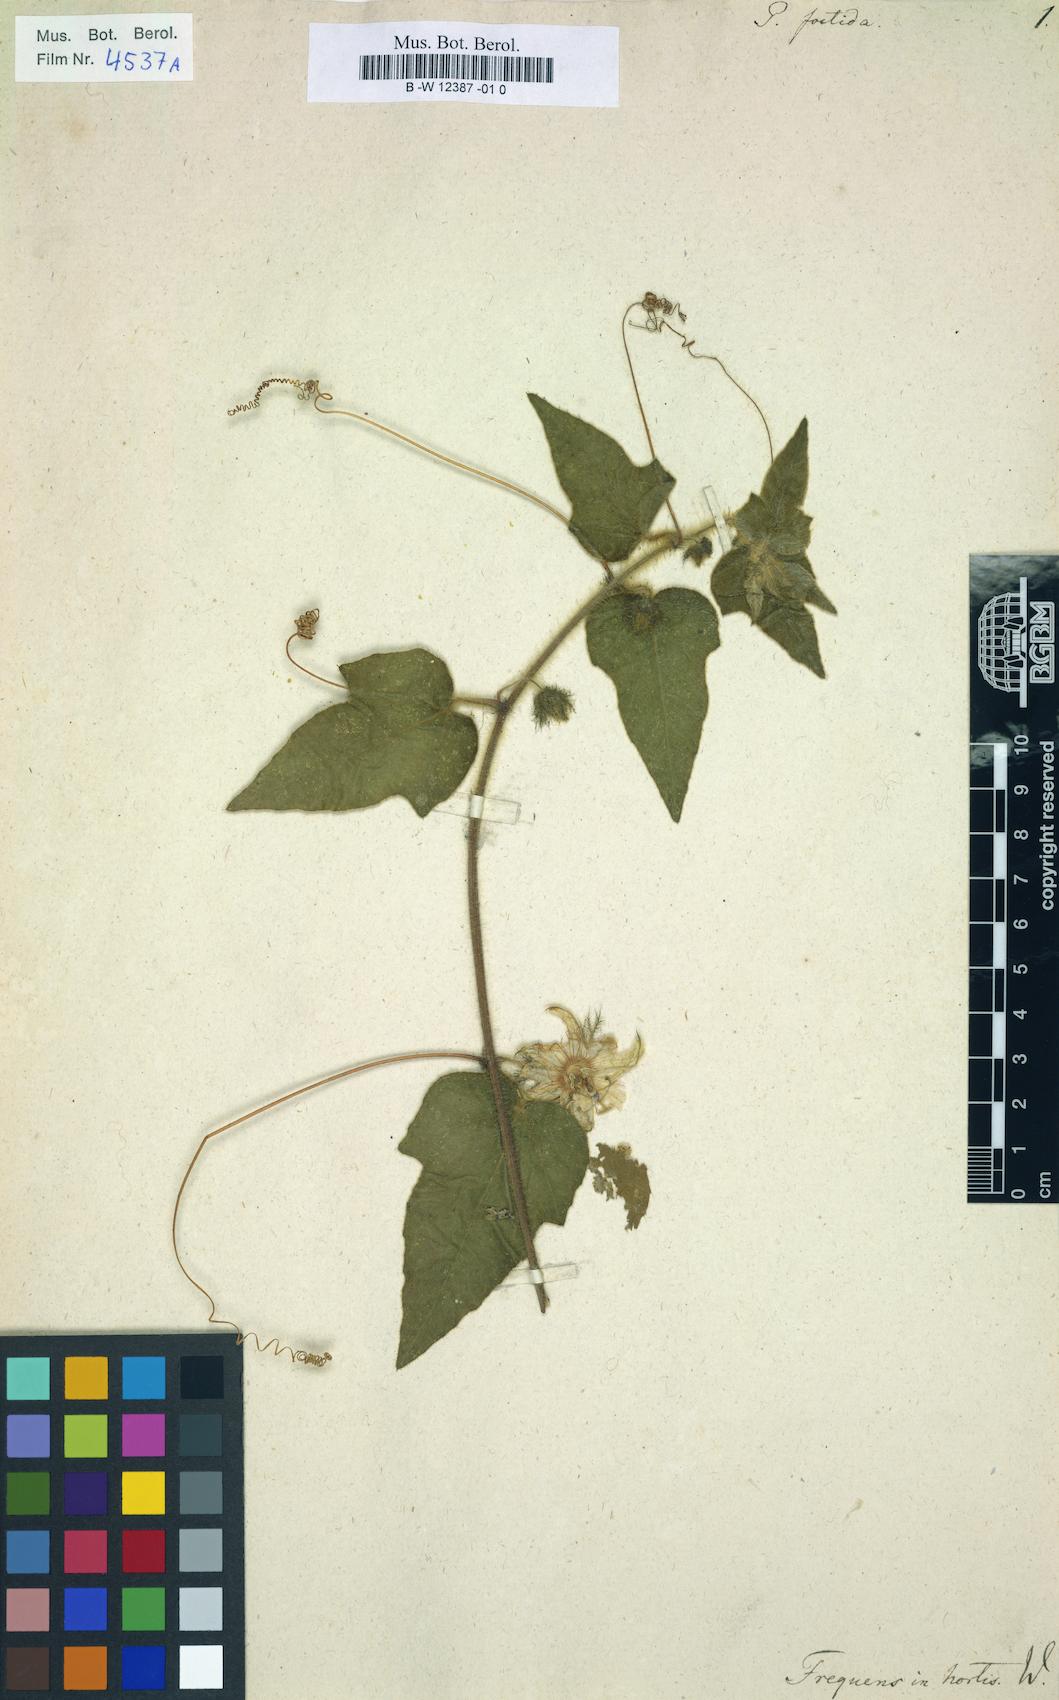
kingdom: Plantae
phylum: Tracheophyta
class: Magnoliopsida
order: Malpighiales
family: Passifloraceae
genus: Passiflora
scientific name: Passiflora foetida
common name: Fetid passionflower
